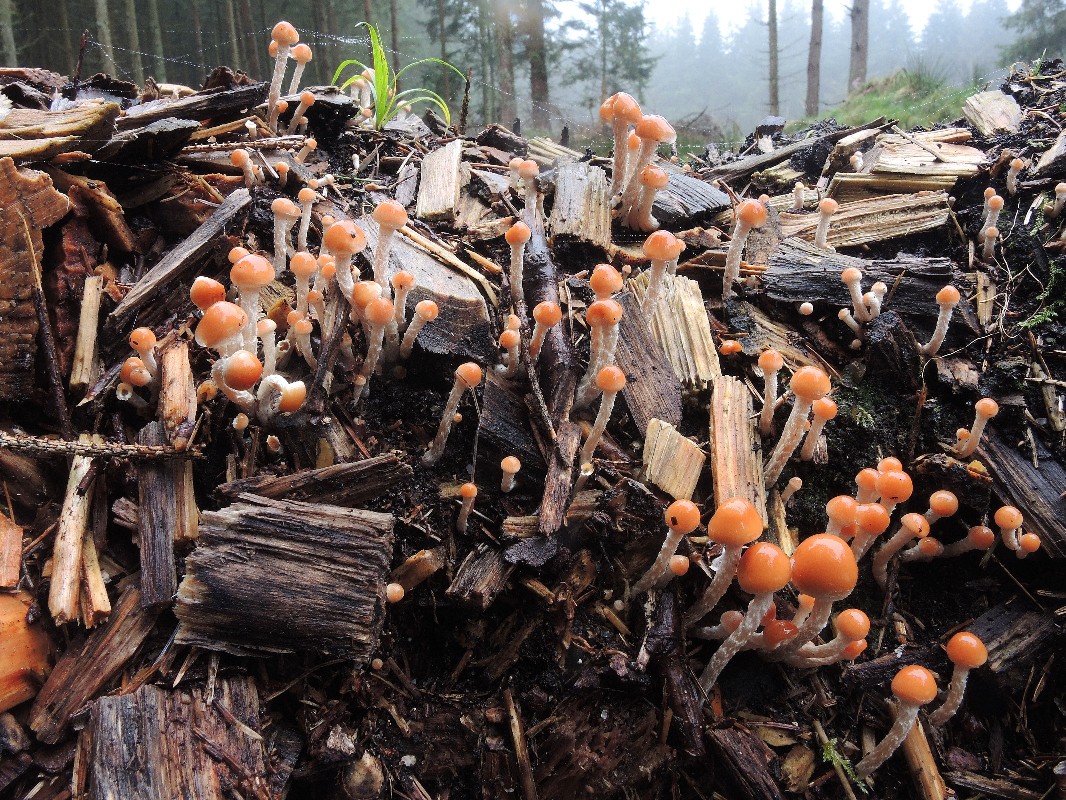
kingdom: Fungi
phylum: Basidiomycota
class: Agaricomycetes
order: Agaricales
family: Strophariaceae
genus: Hypholoma
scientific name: Hypholoma marginatum
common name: enlig svovlhat
